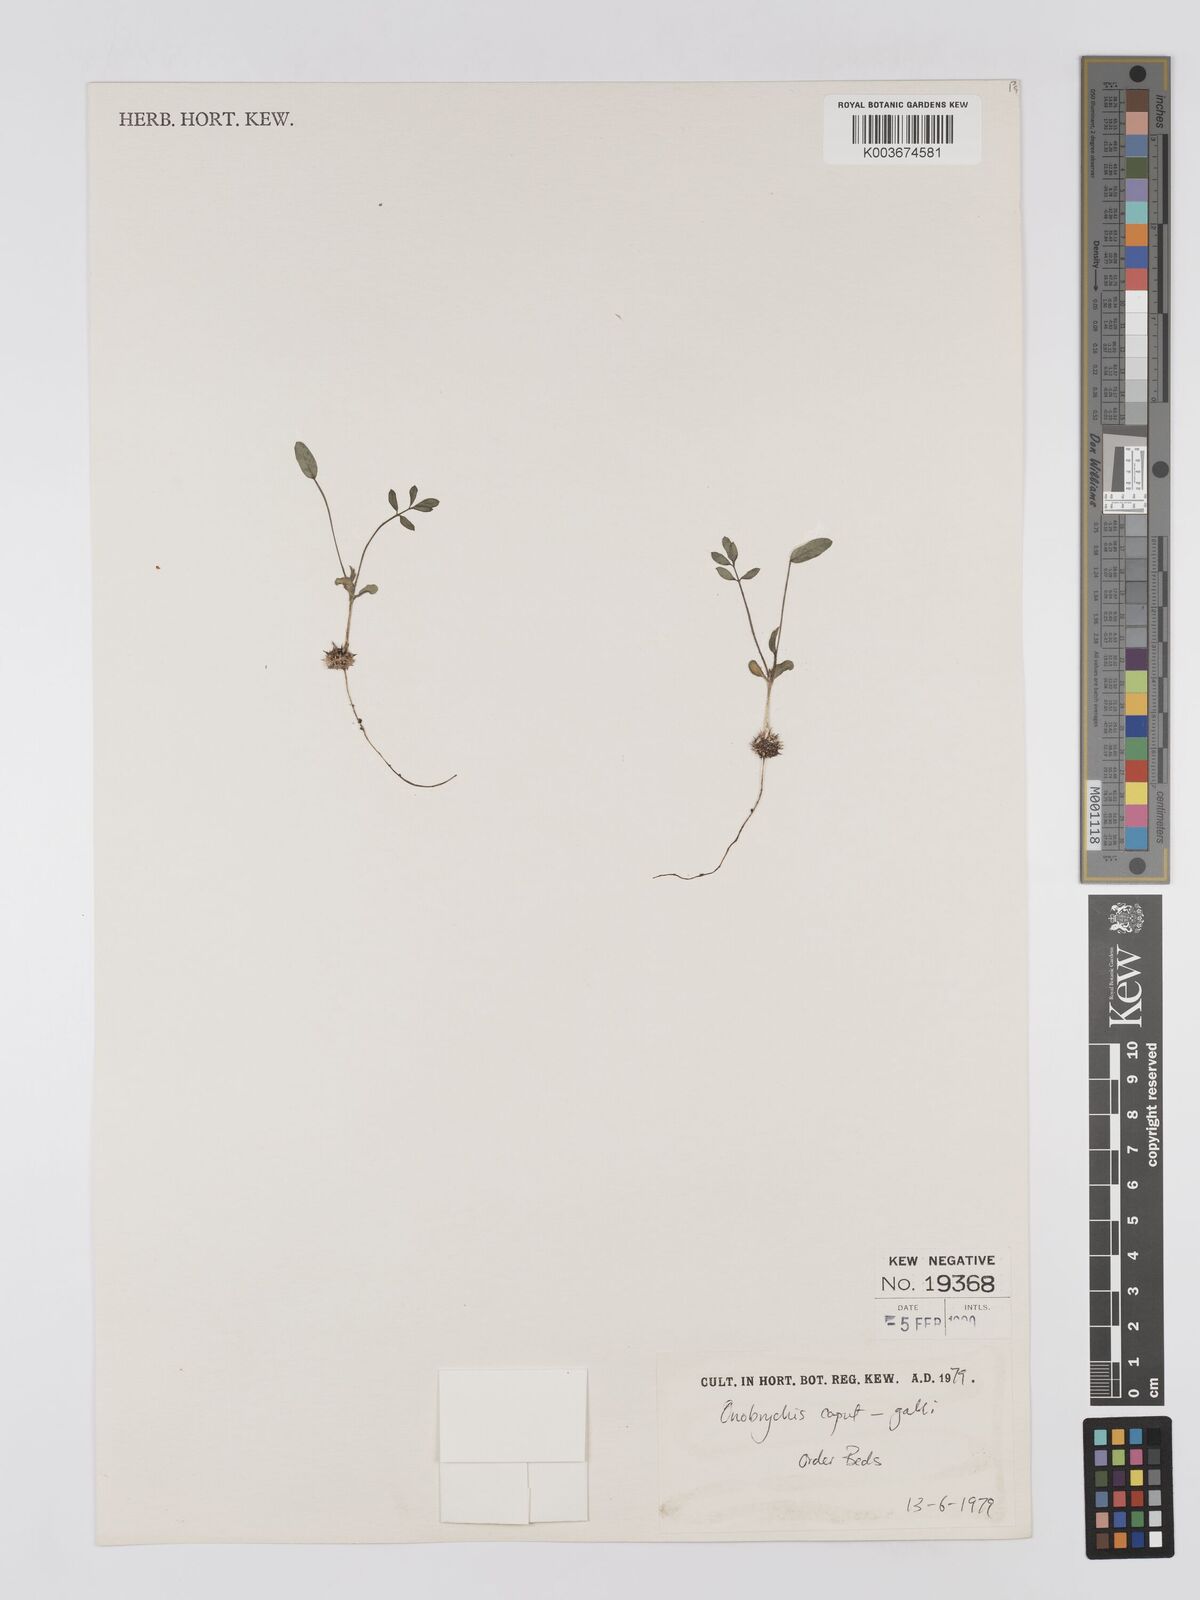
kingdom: Plantae
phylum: Tracheophyta
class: Magnoliopsida
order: Fabales
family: Fabaceae
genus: Onobrychis
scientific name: Onobrychis caput-galli
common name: Cockscomb sainfoin
